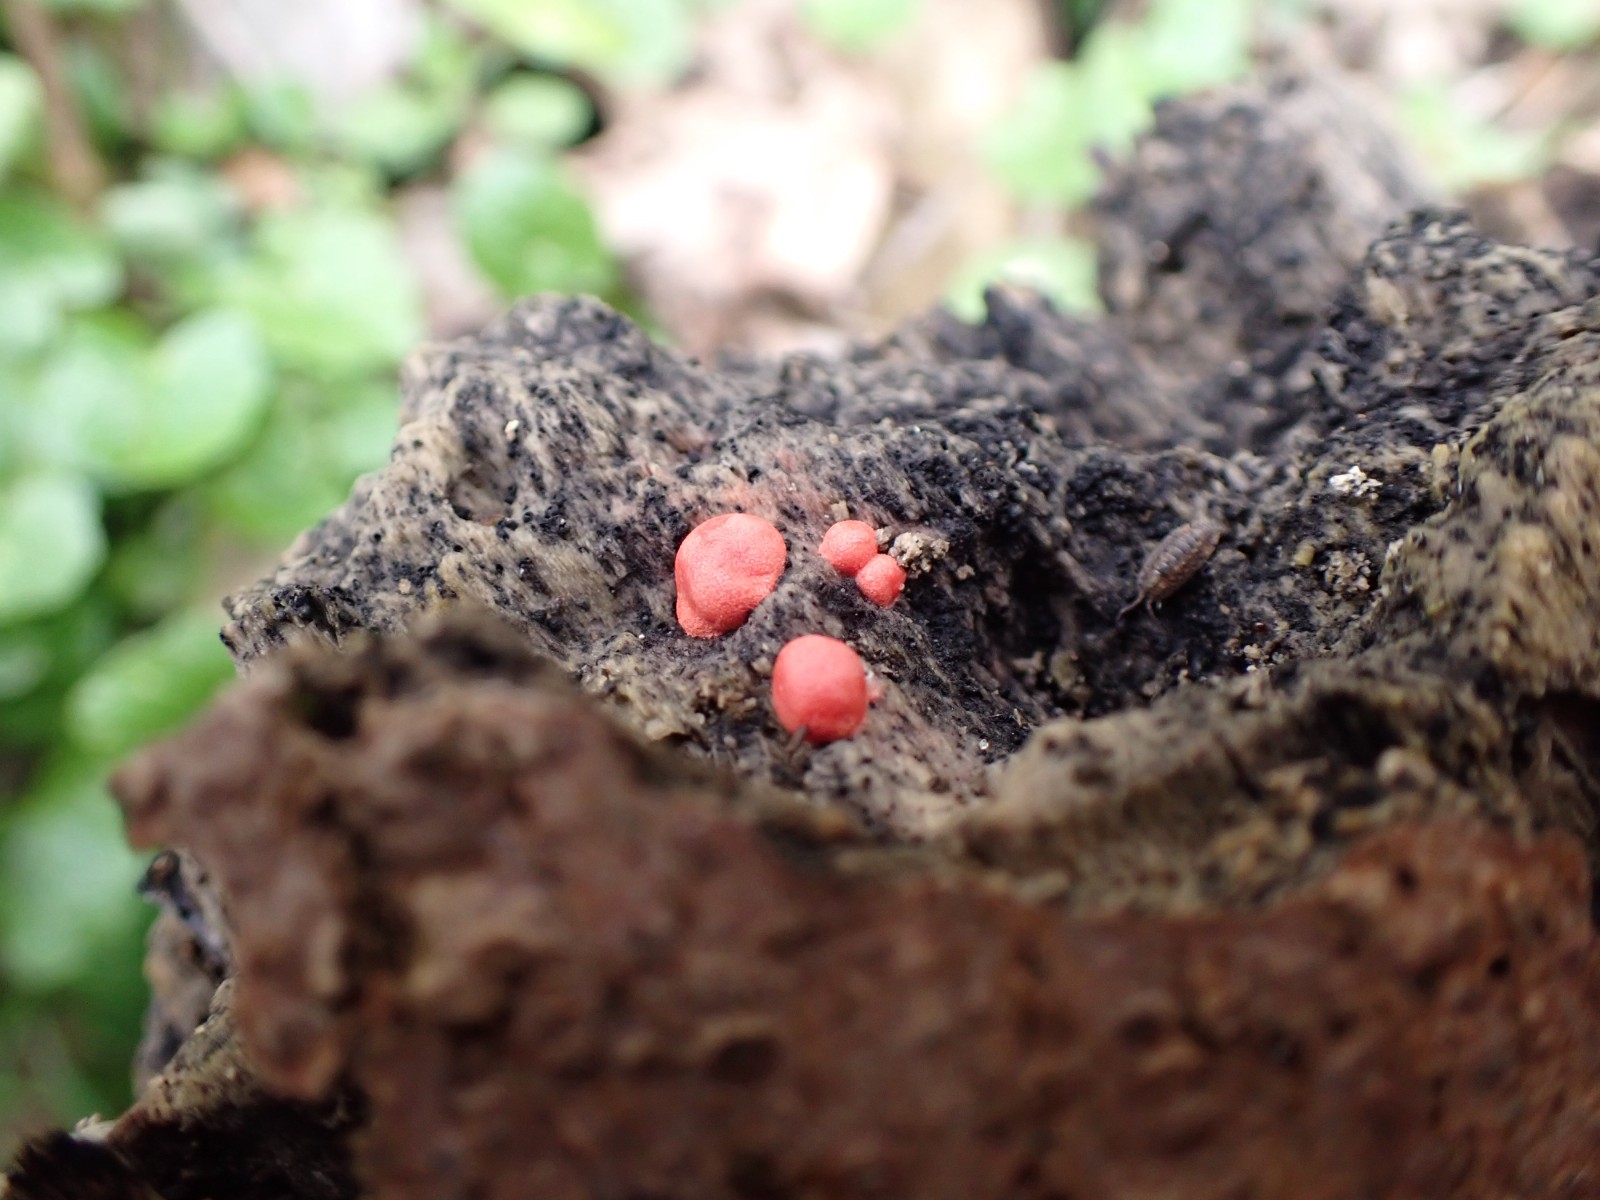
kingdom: Protozoa
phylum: Mycetozoa
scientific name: Mycetozoa
